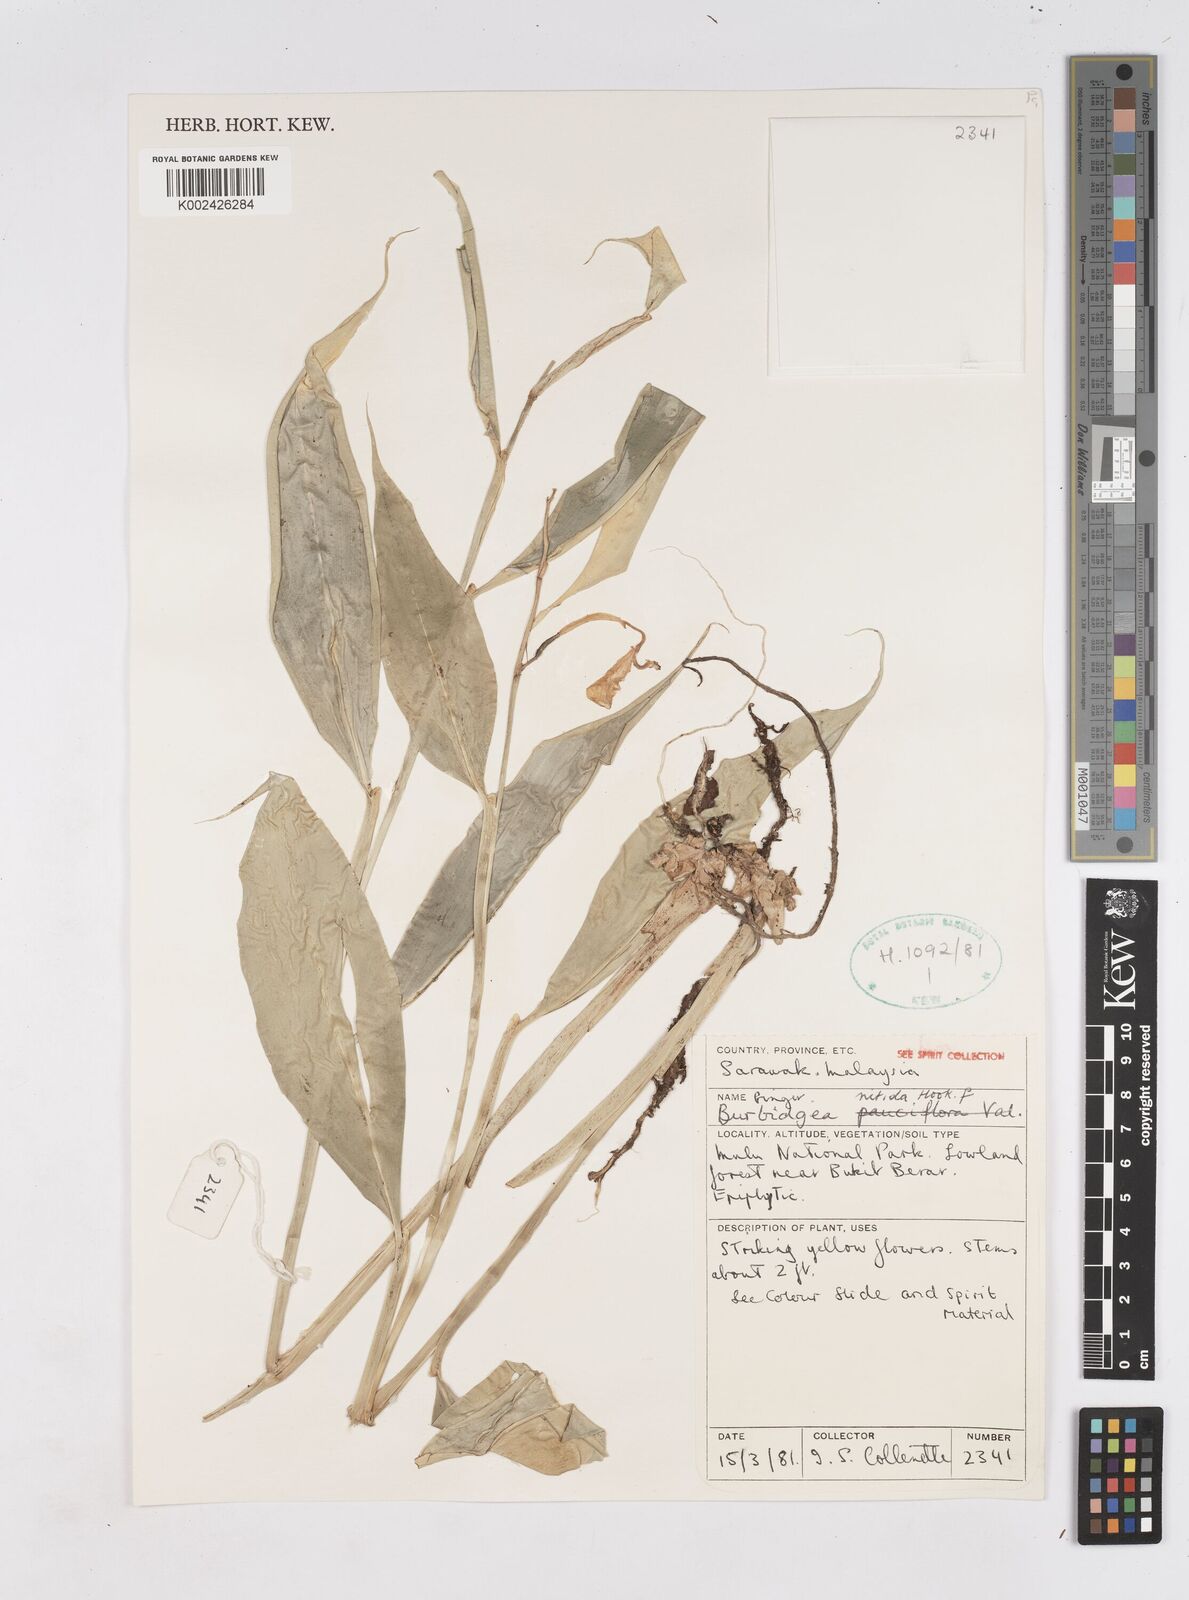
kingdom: Plantae
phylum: Tracheophyta
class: Liliopsida
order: Zingiberales
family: Zingiberaceae
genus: Burbidgea
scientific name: Burbidgea nitida
